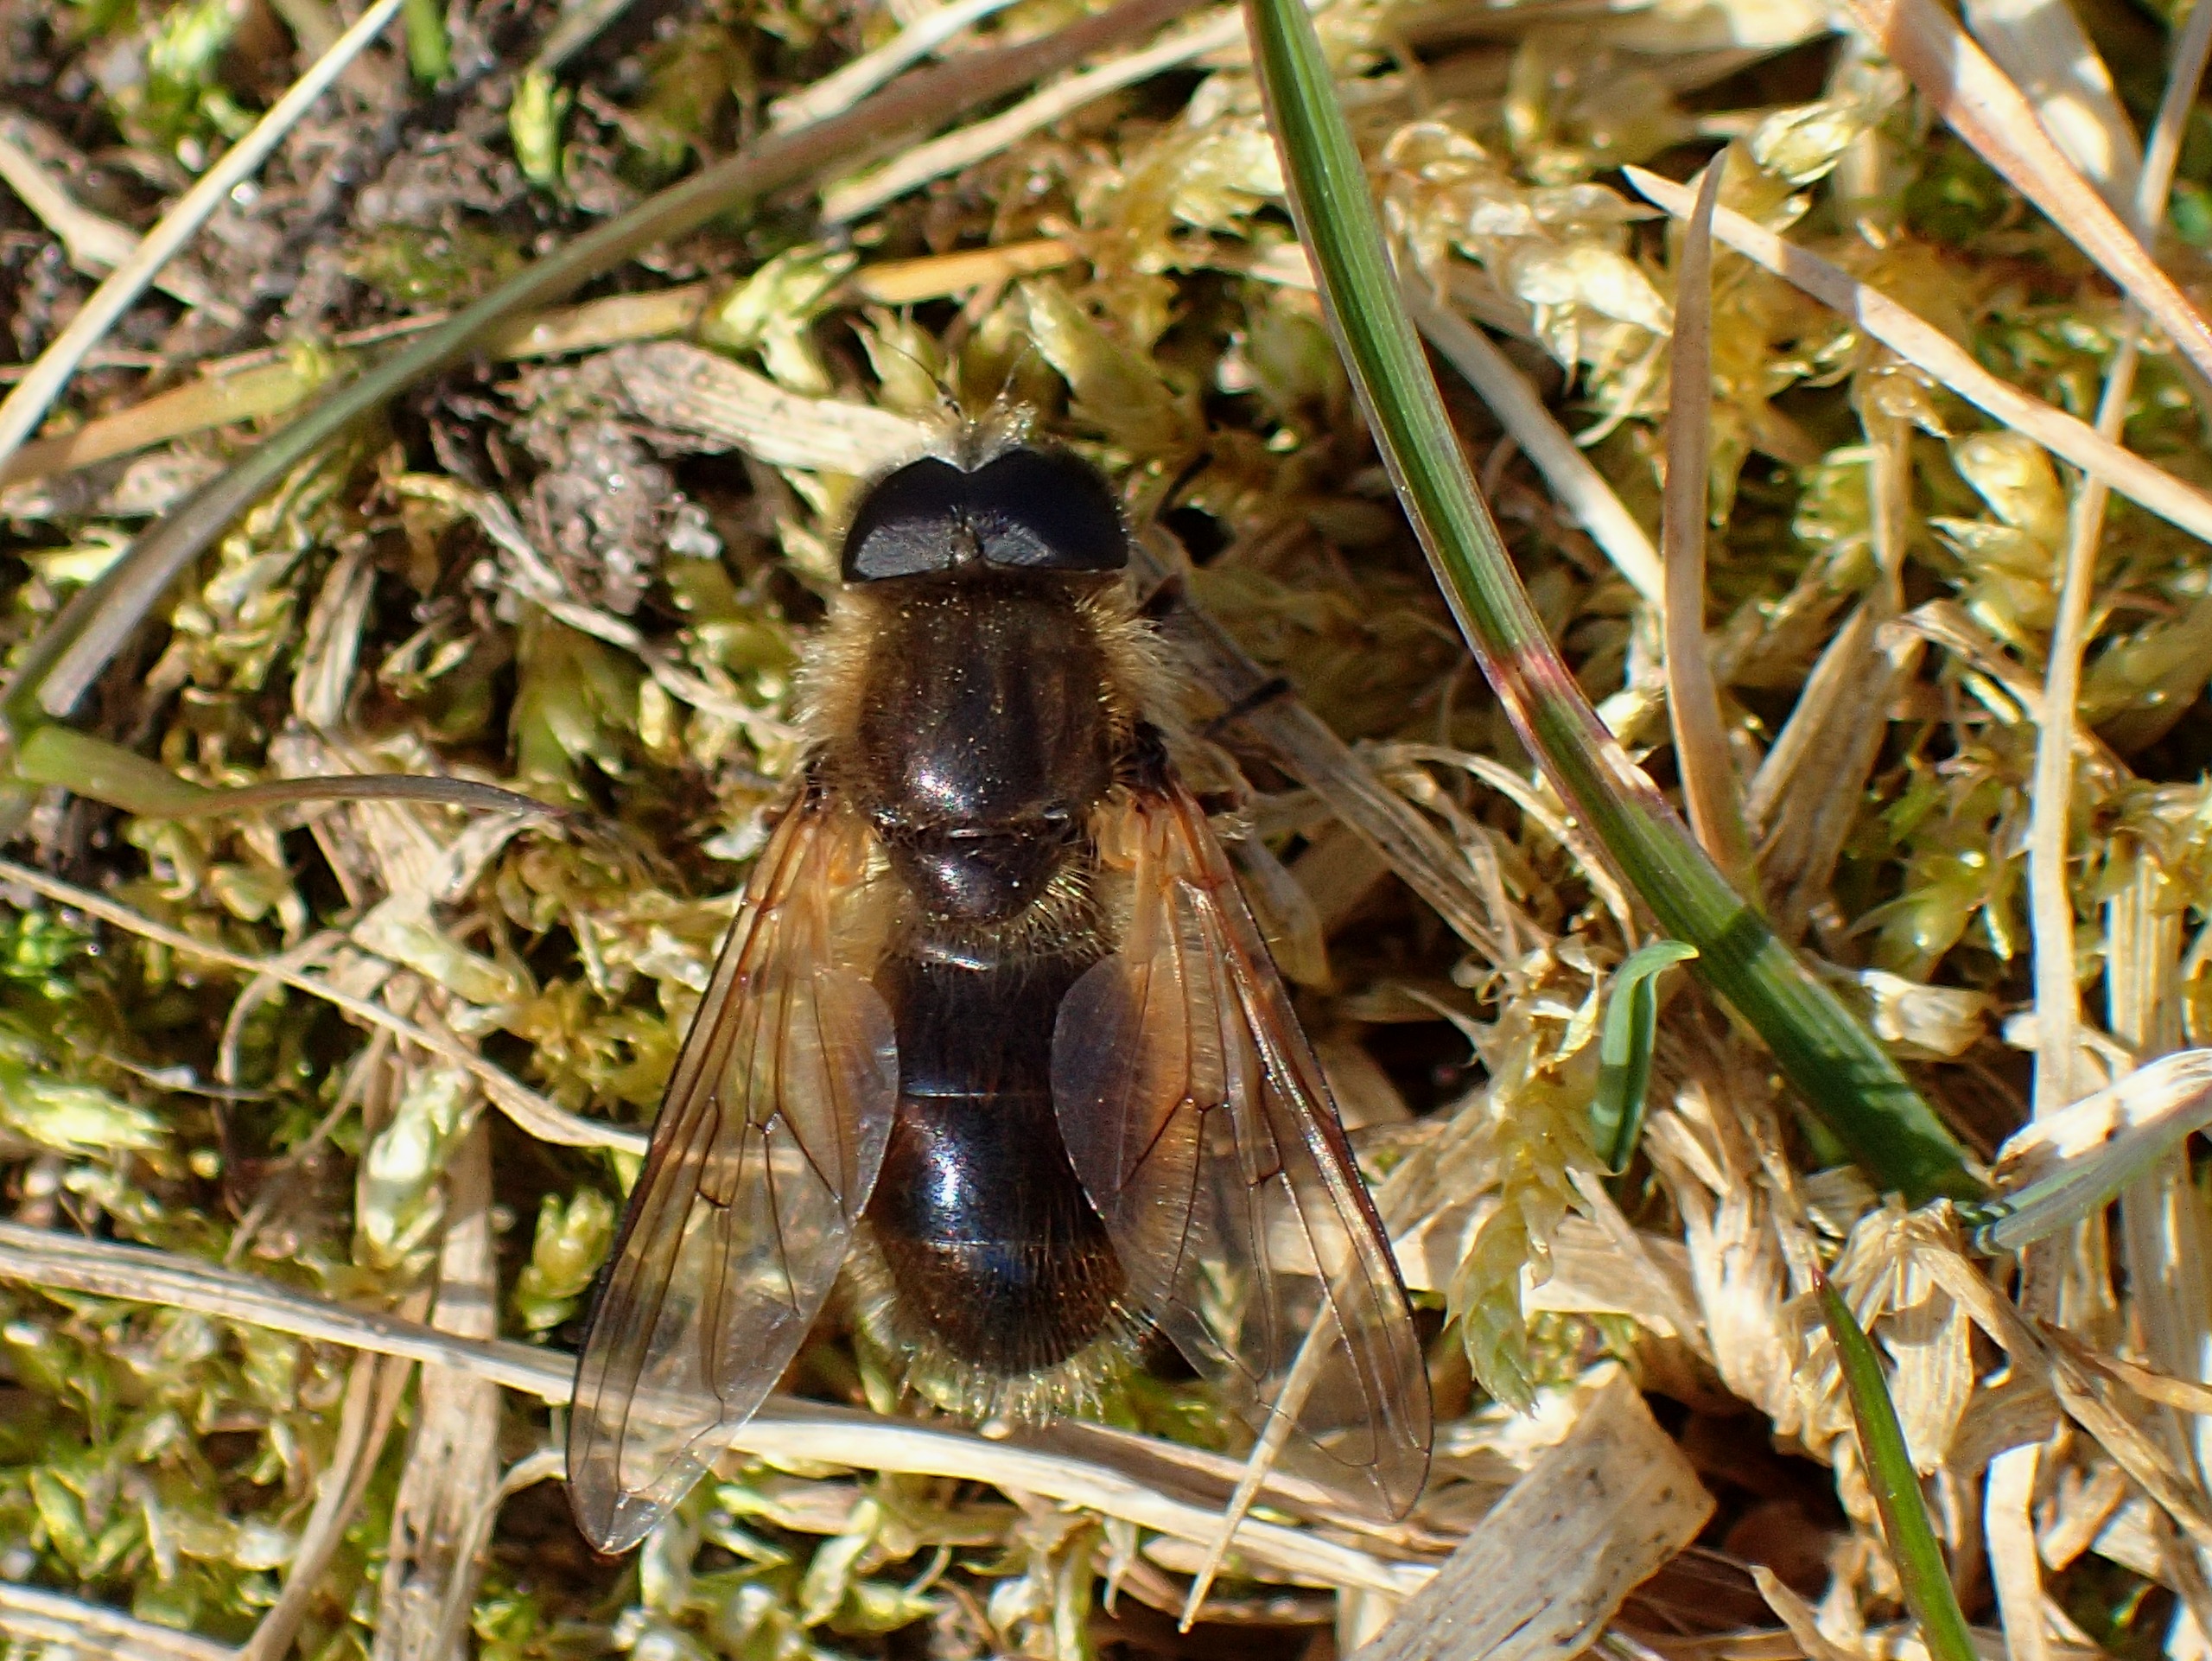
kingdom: Animalia
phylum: Arthropoda
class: Insecta
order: Diptera
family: Syrphidae
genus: Cheilosia
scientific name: Cheilosia albipila
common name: Hvidhåret urtesvirreflue
